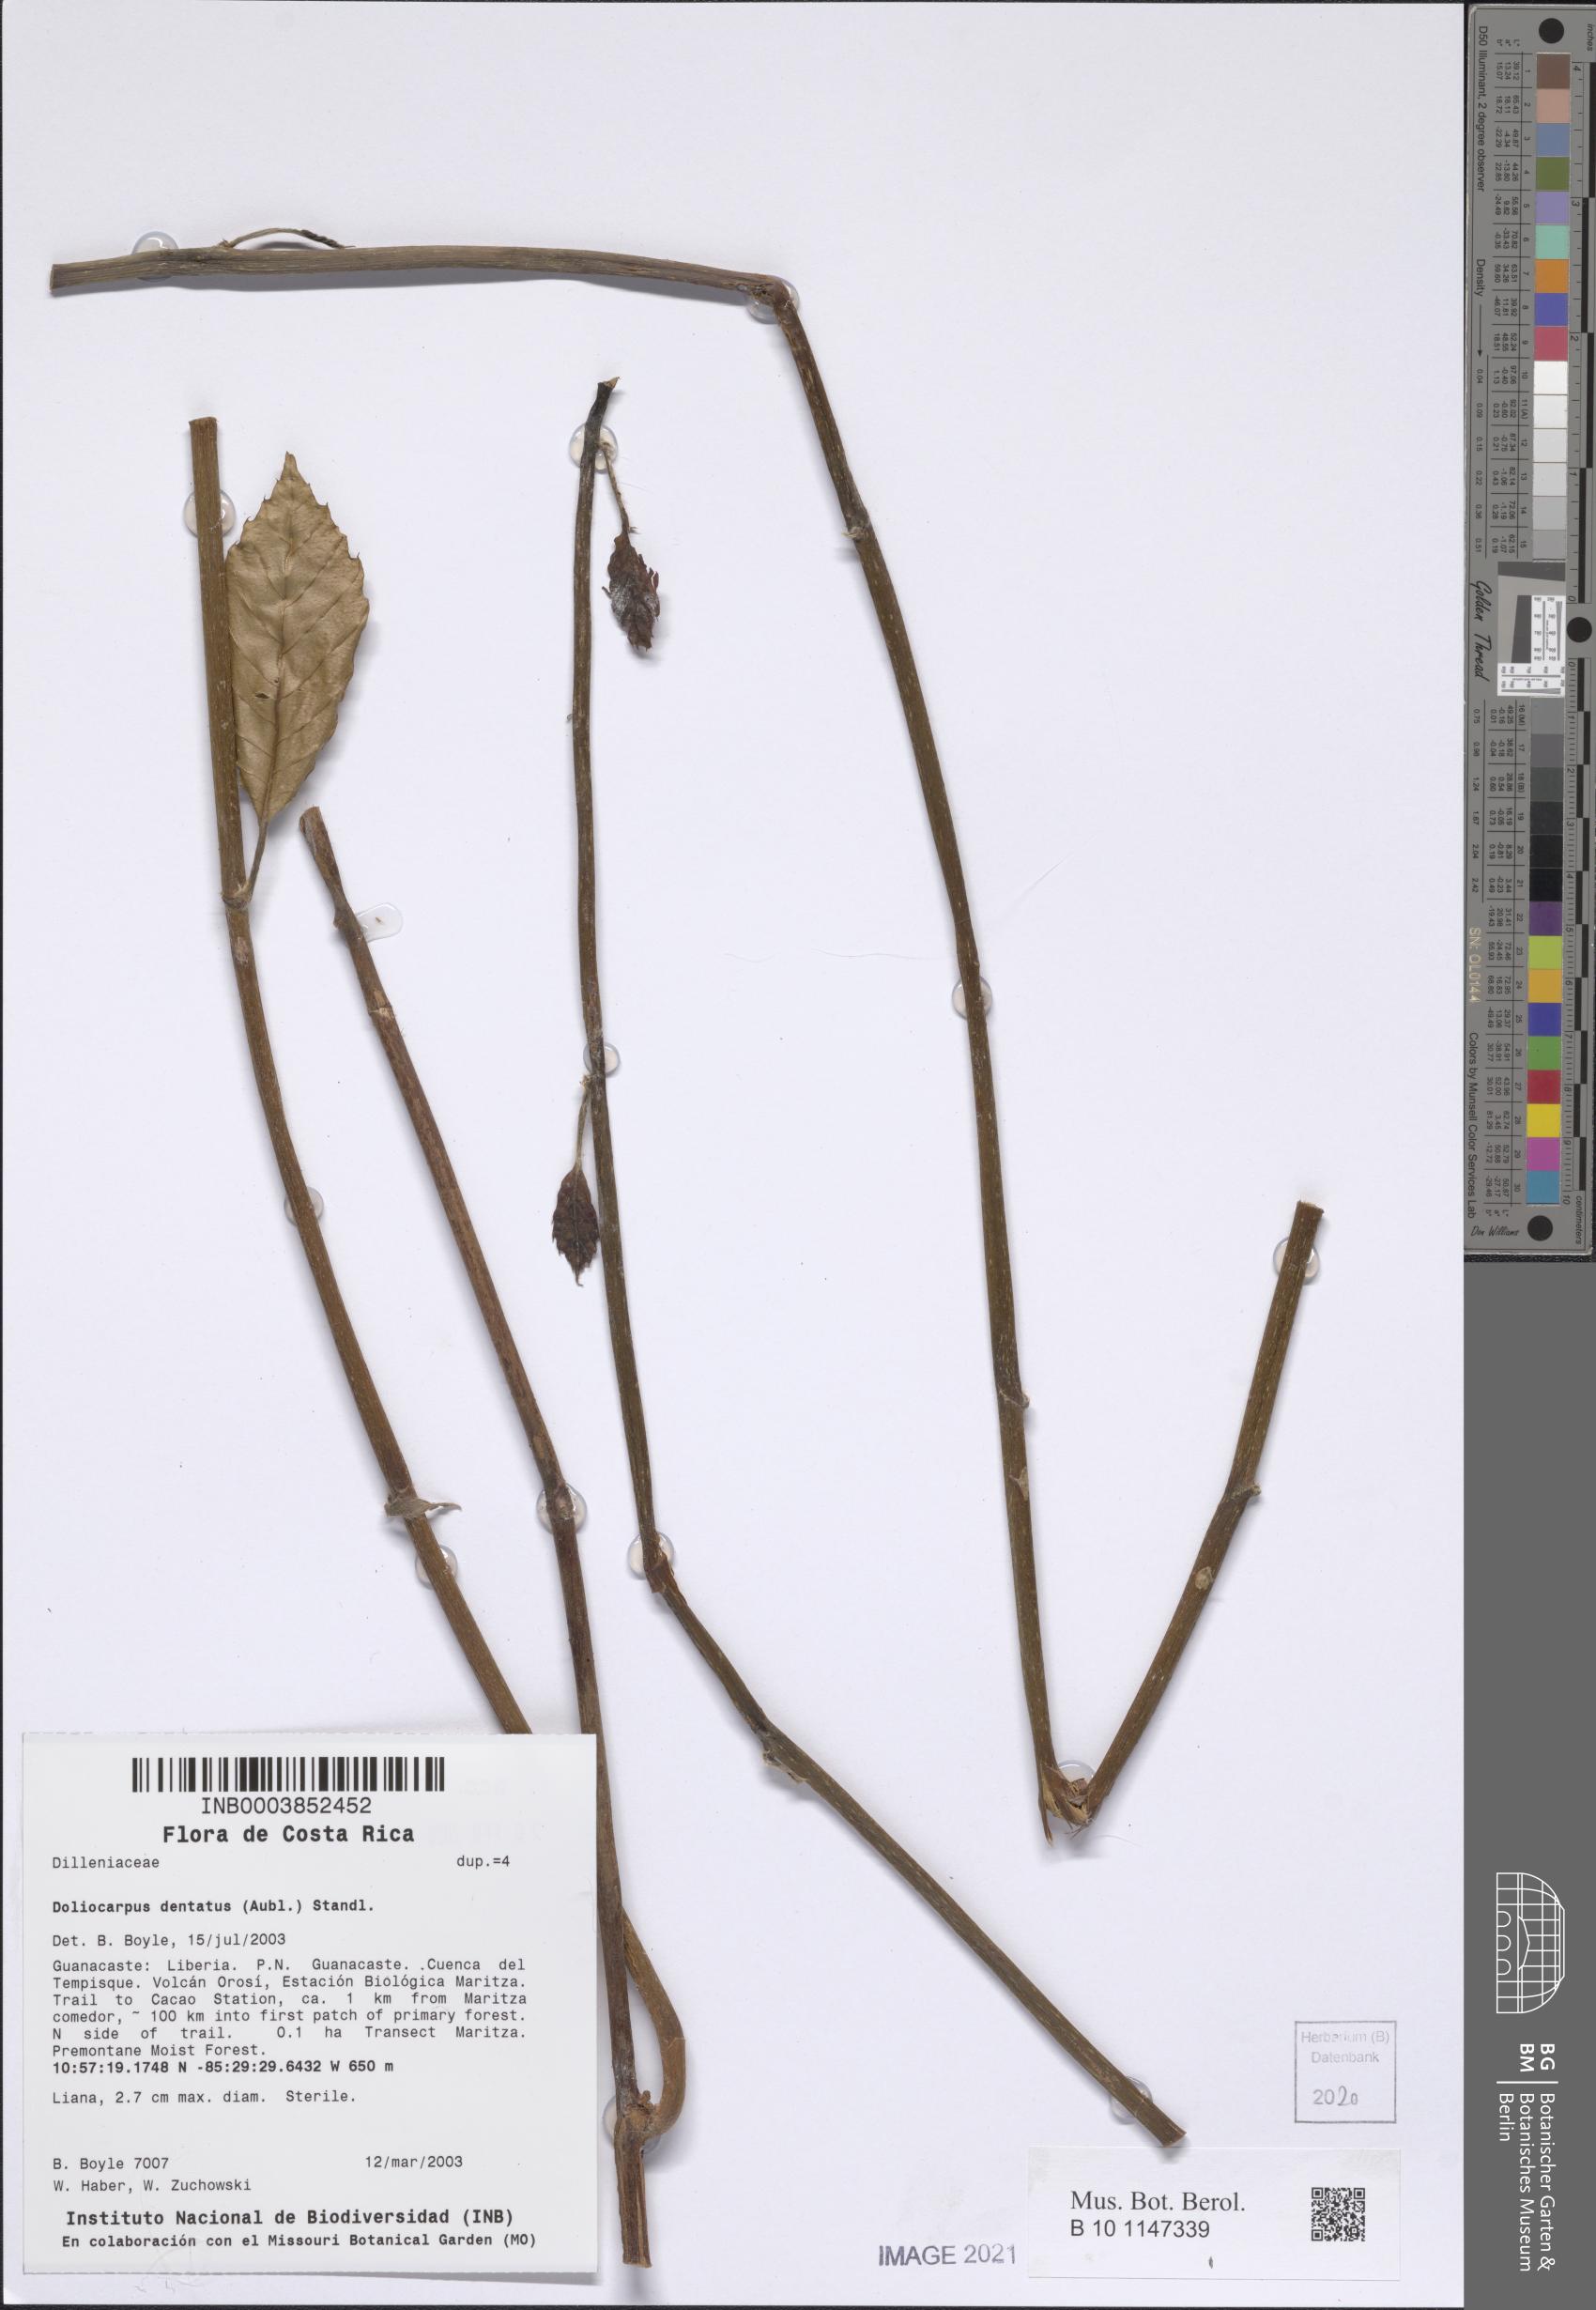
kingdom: Plantae
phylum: Tracheophyta
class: Magnoliopsida
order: Dilleniales
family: Dilleniaceae
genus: Doliocarpus
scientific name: Doliocarpus dentatus
